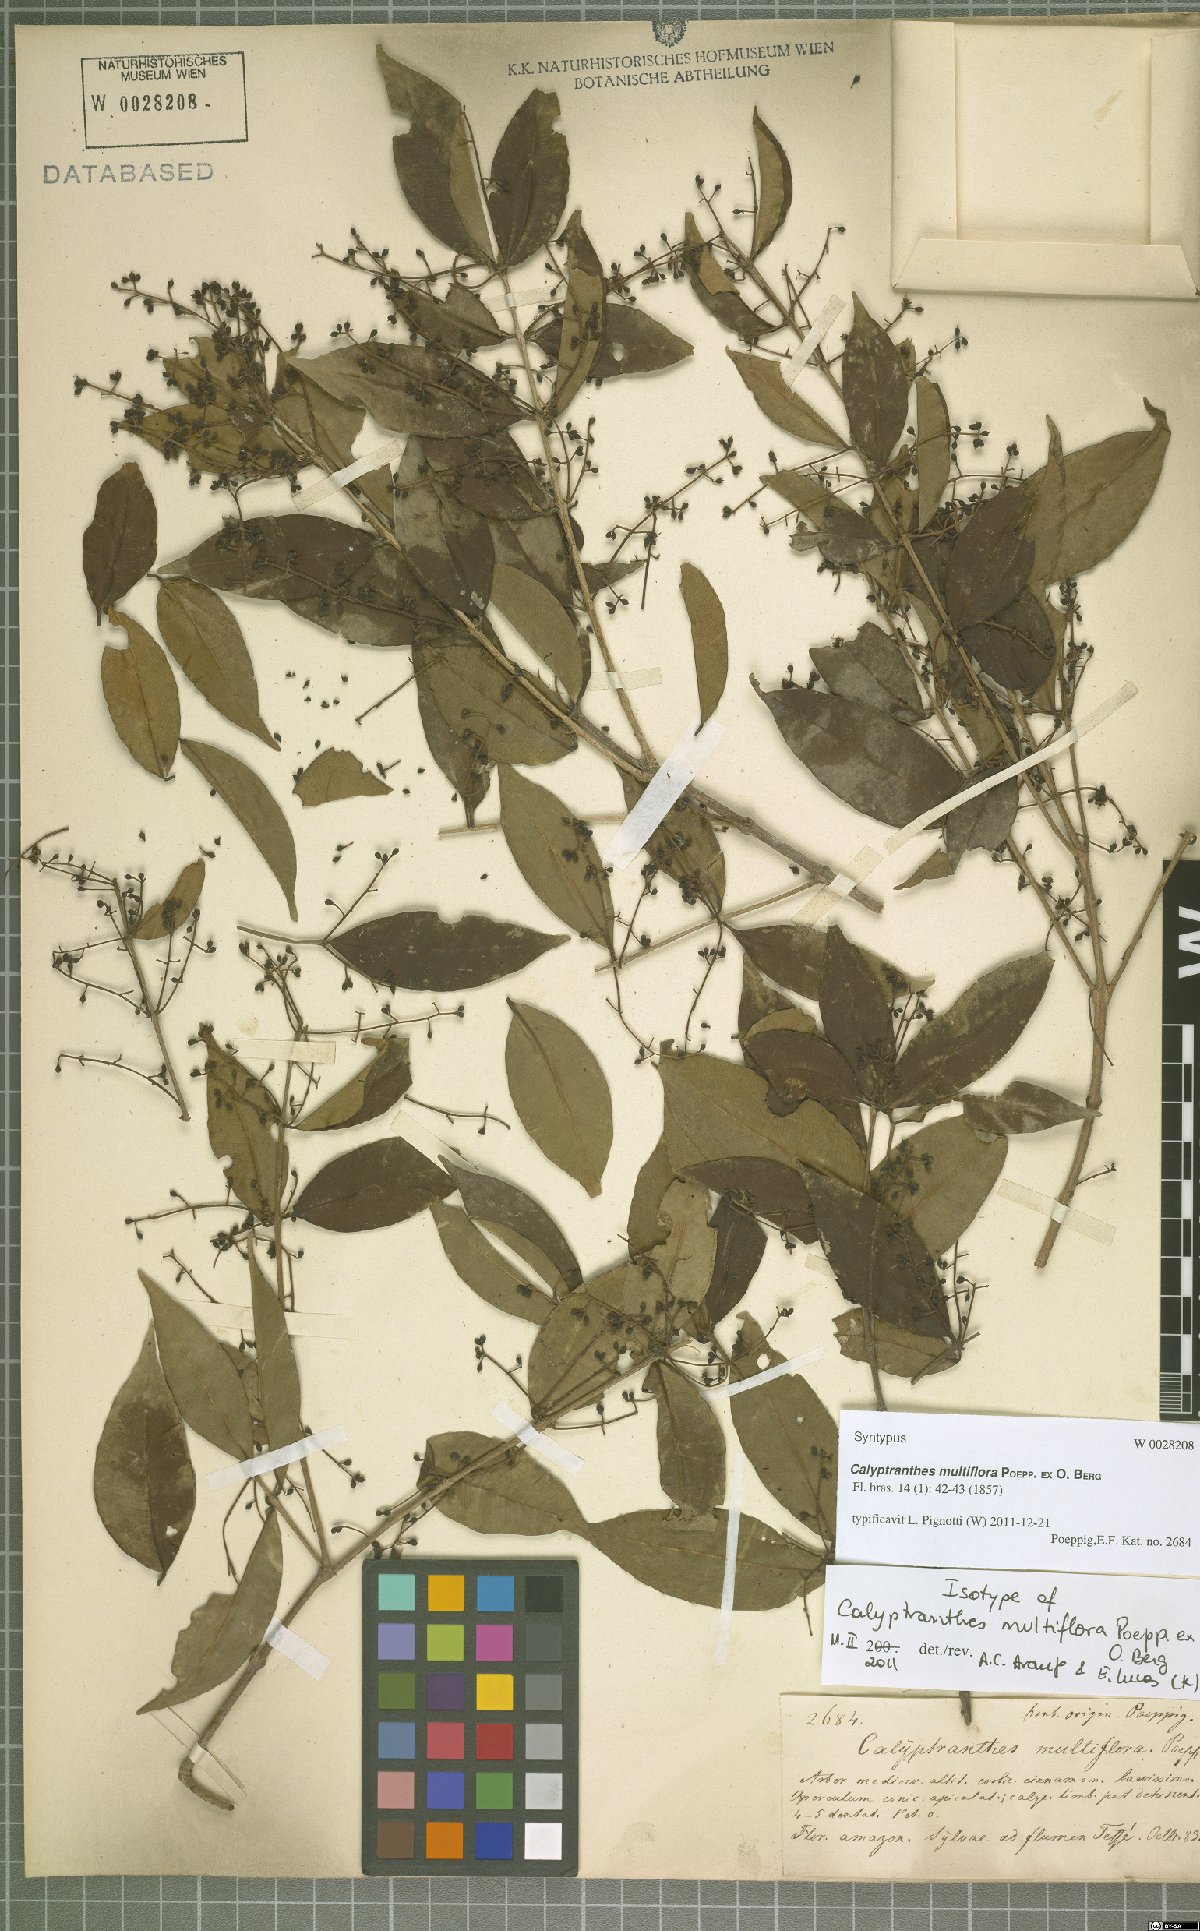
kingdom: Plantae
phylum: Tracheophyta
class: Magnoliopsida
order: Myrtales
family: Myrtaceae
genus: Myrcia
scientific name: Myrcia aulomyrcioides
